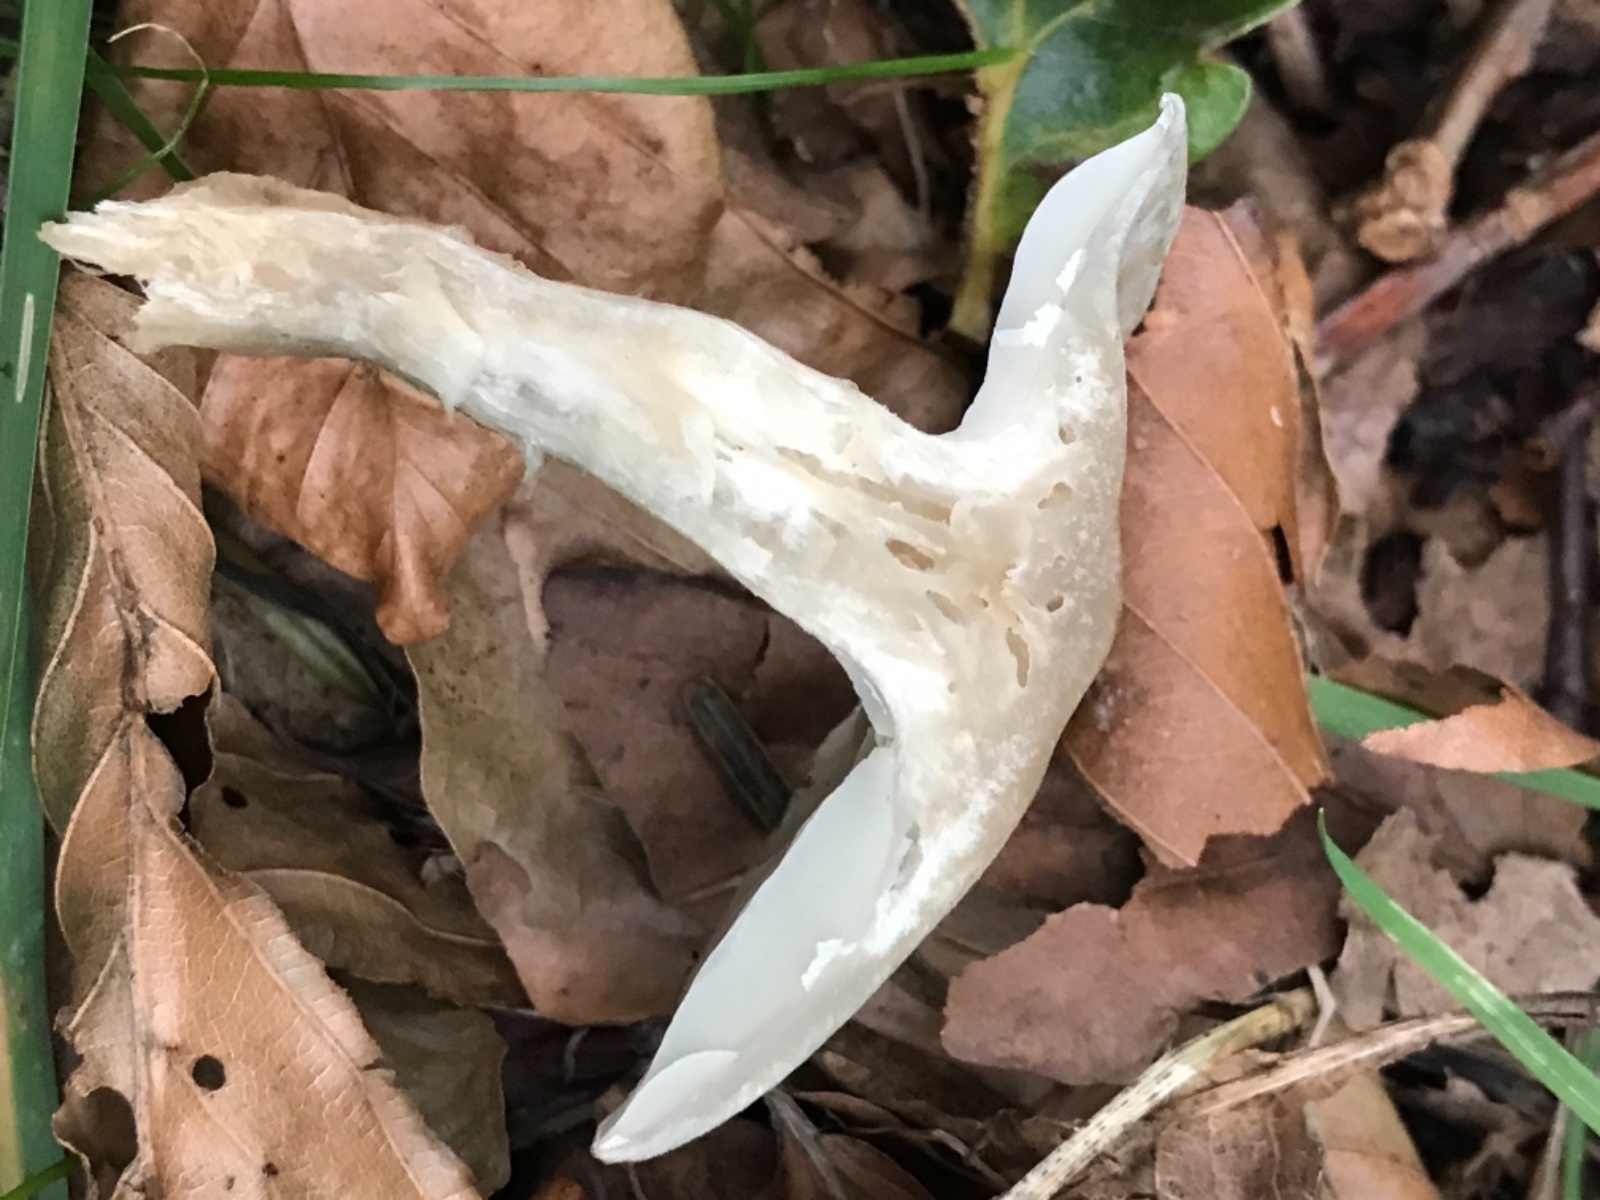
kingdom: Fungi
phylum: Basidiomycota
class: Agaricomycetes
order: Agaricales
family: Tricholomataceae
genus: Clitocybe
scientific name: Clitocybe odora
